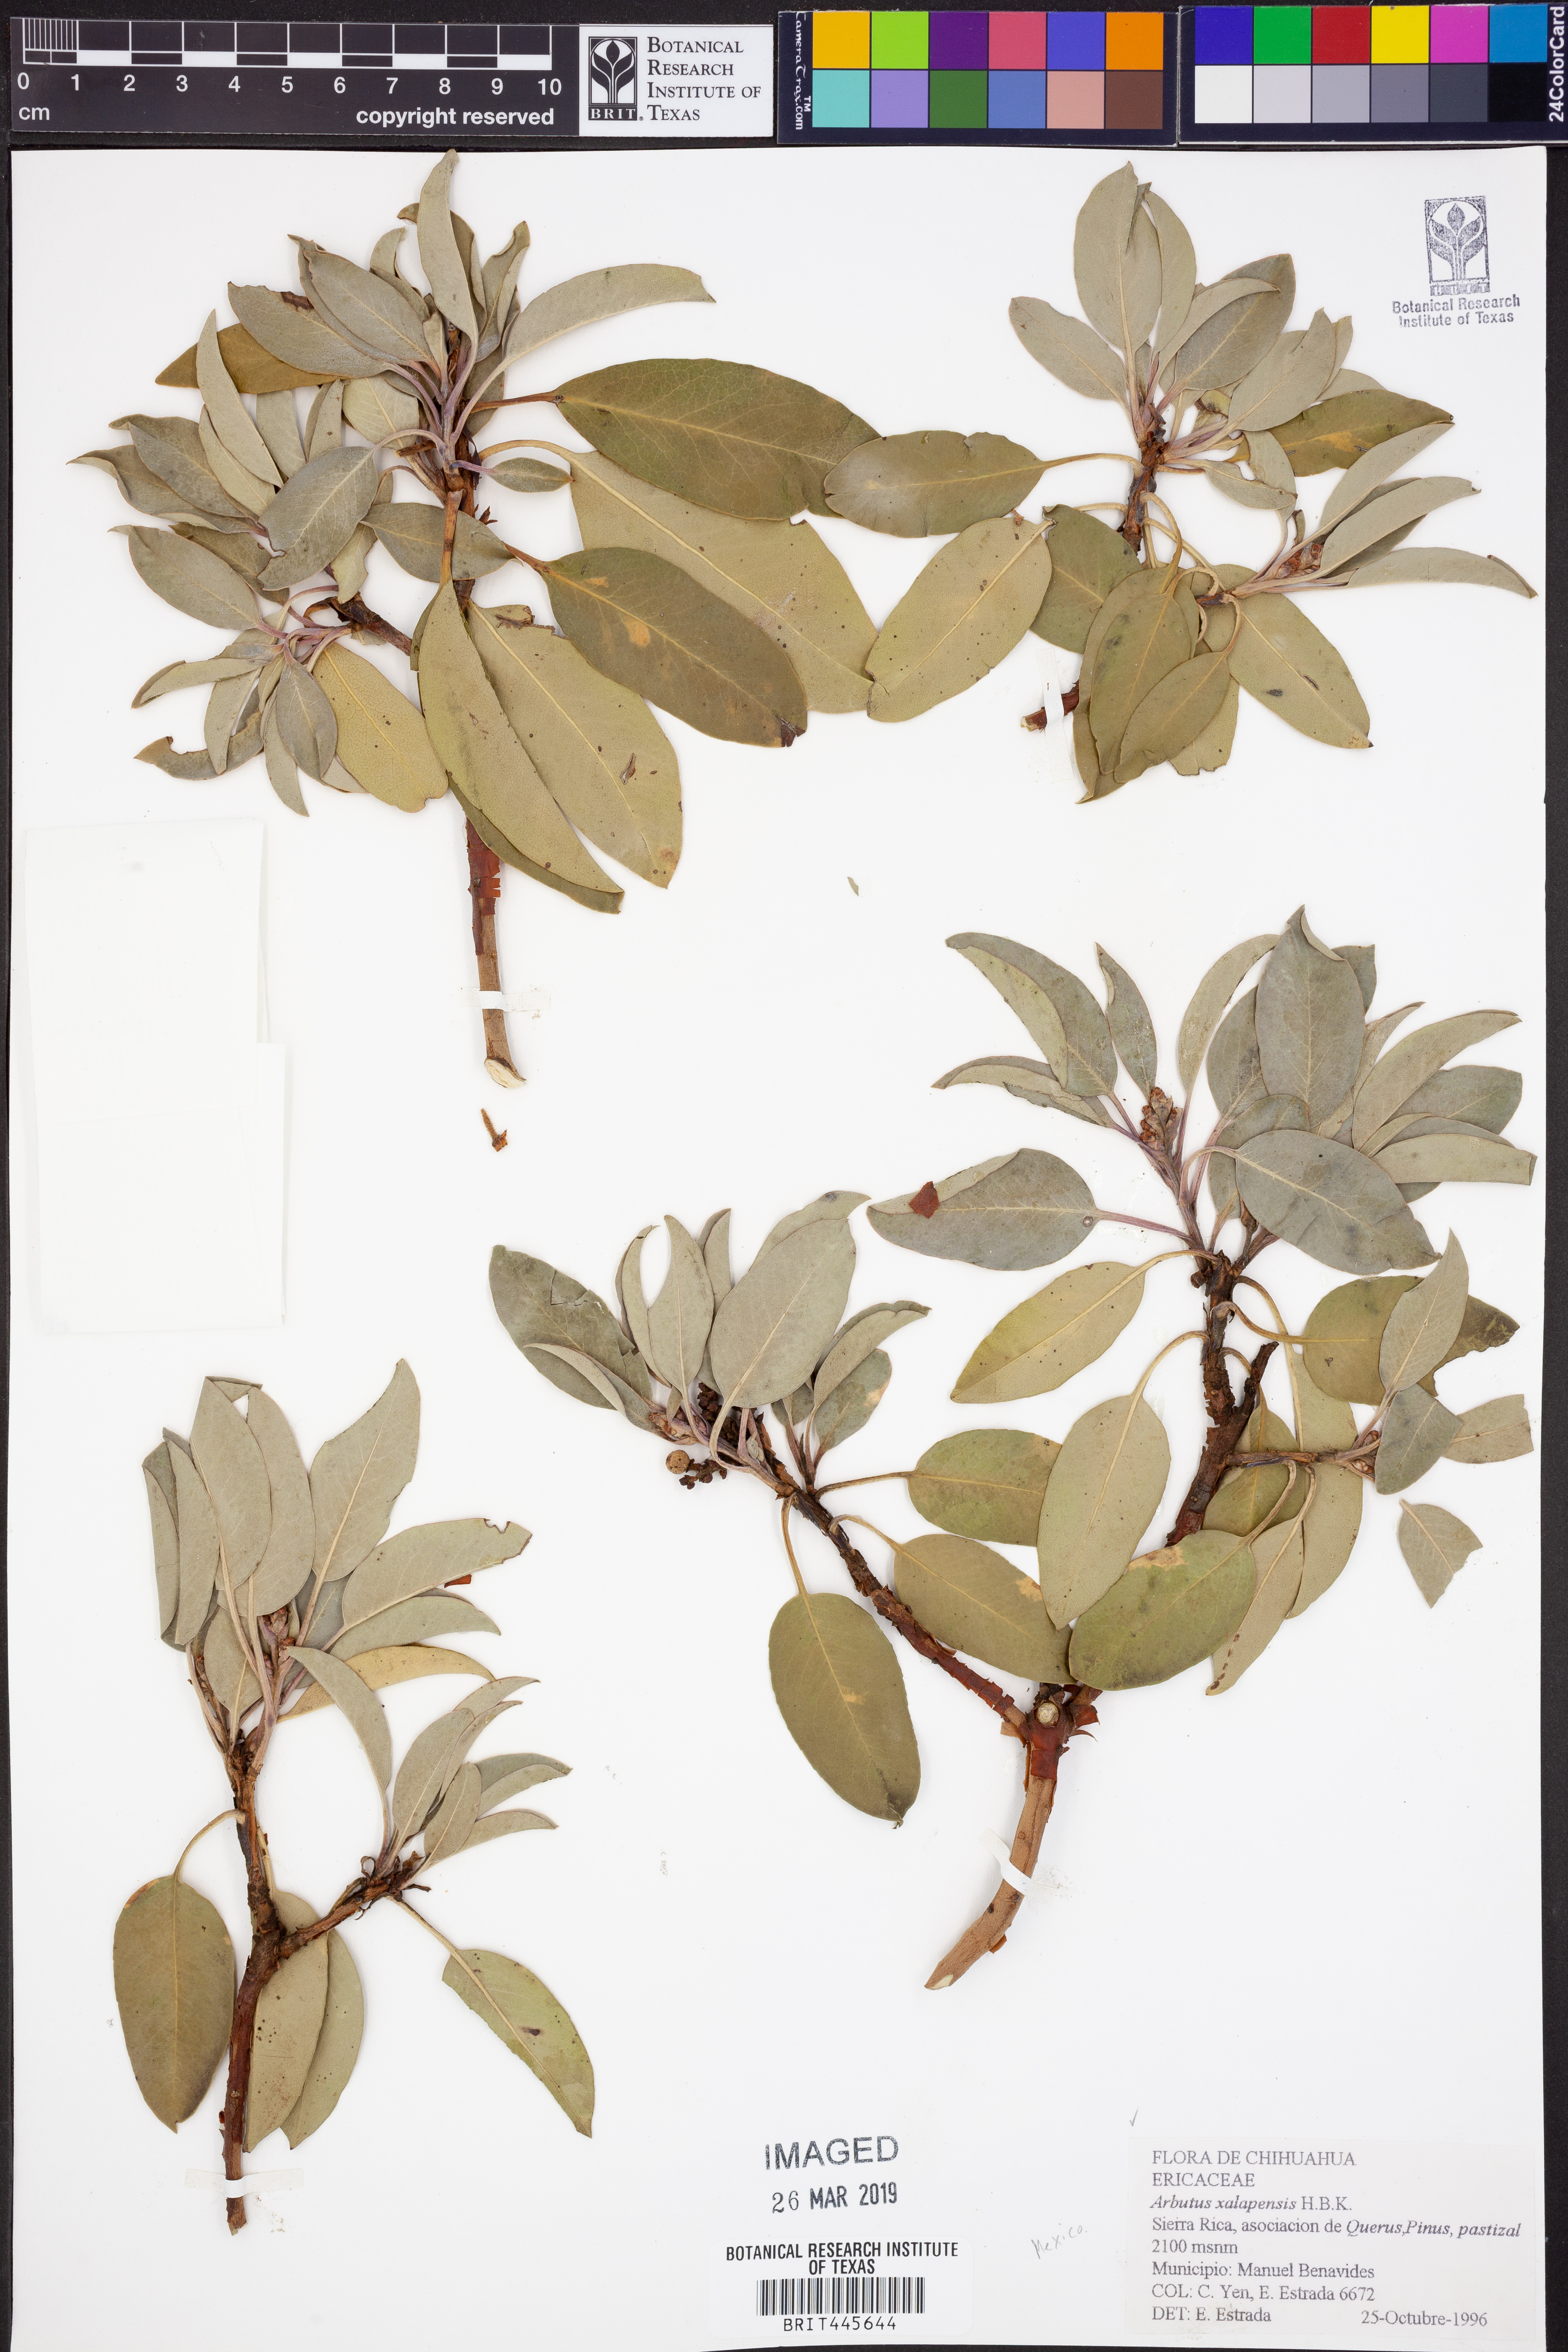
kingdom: Plantae
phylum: Tracheophyta
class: Magnoliopsida
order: Ericales
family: Ericaceae
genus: Arbutus
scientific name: Arbutus xalapensis
